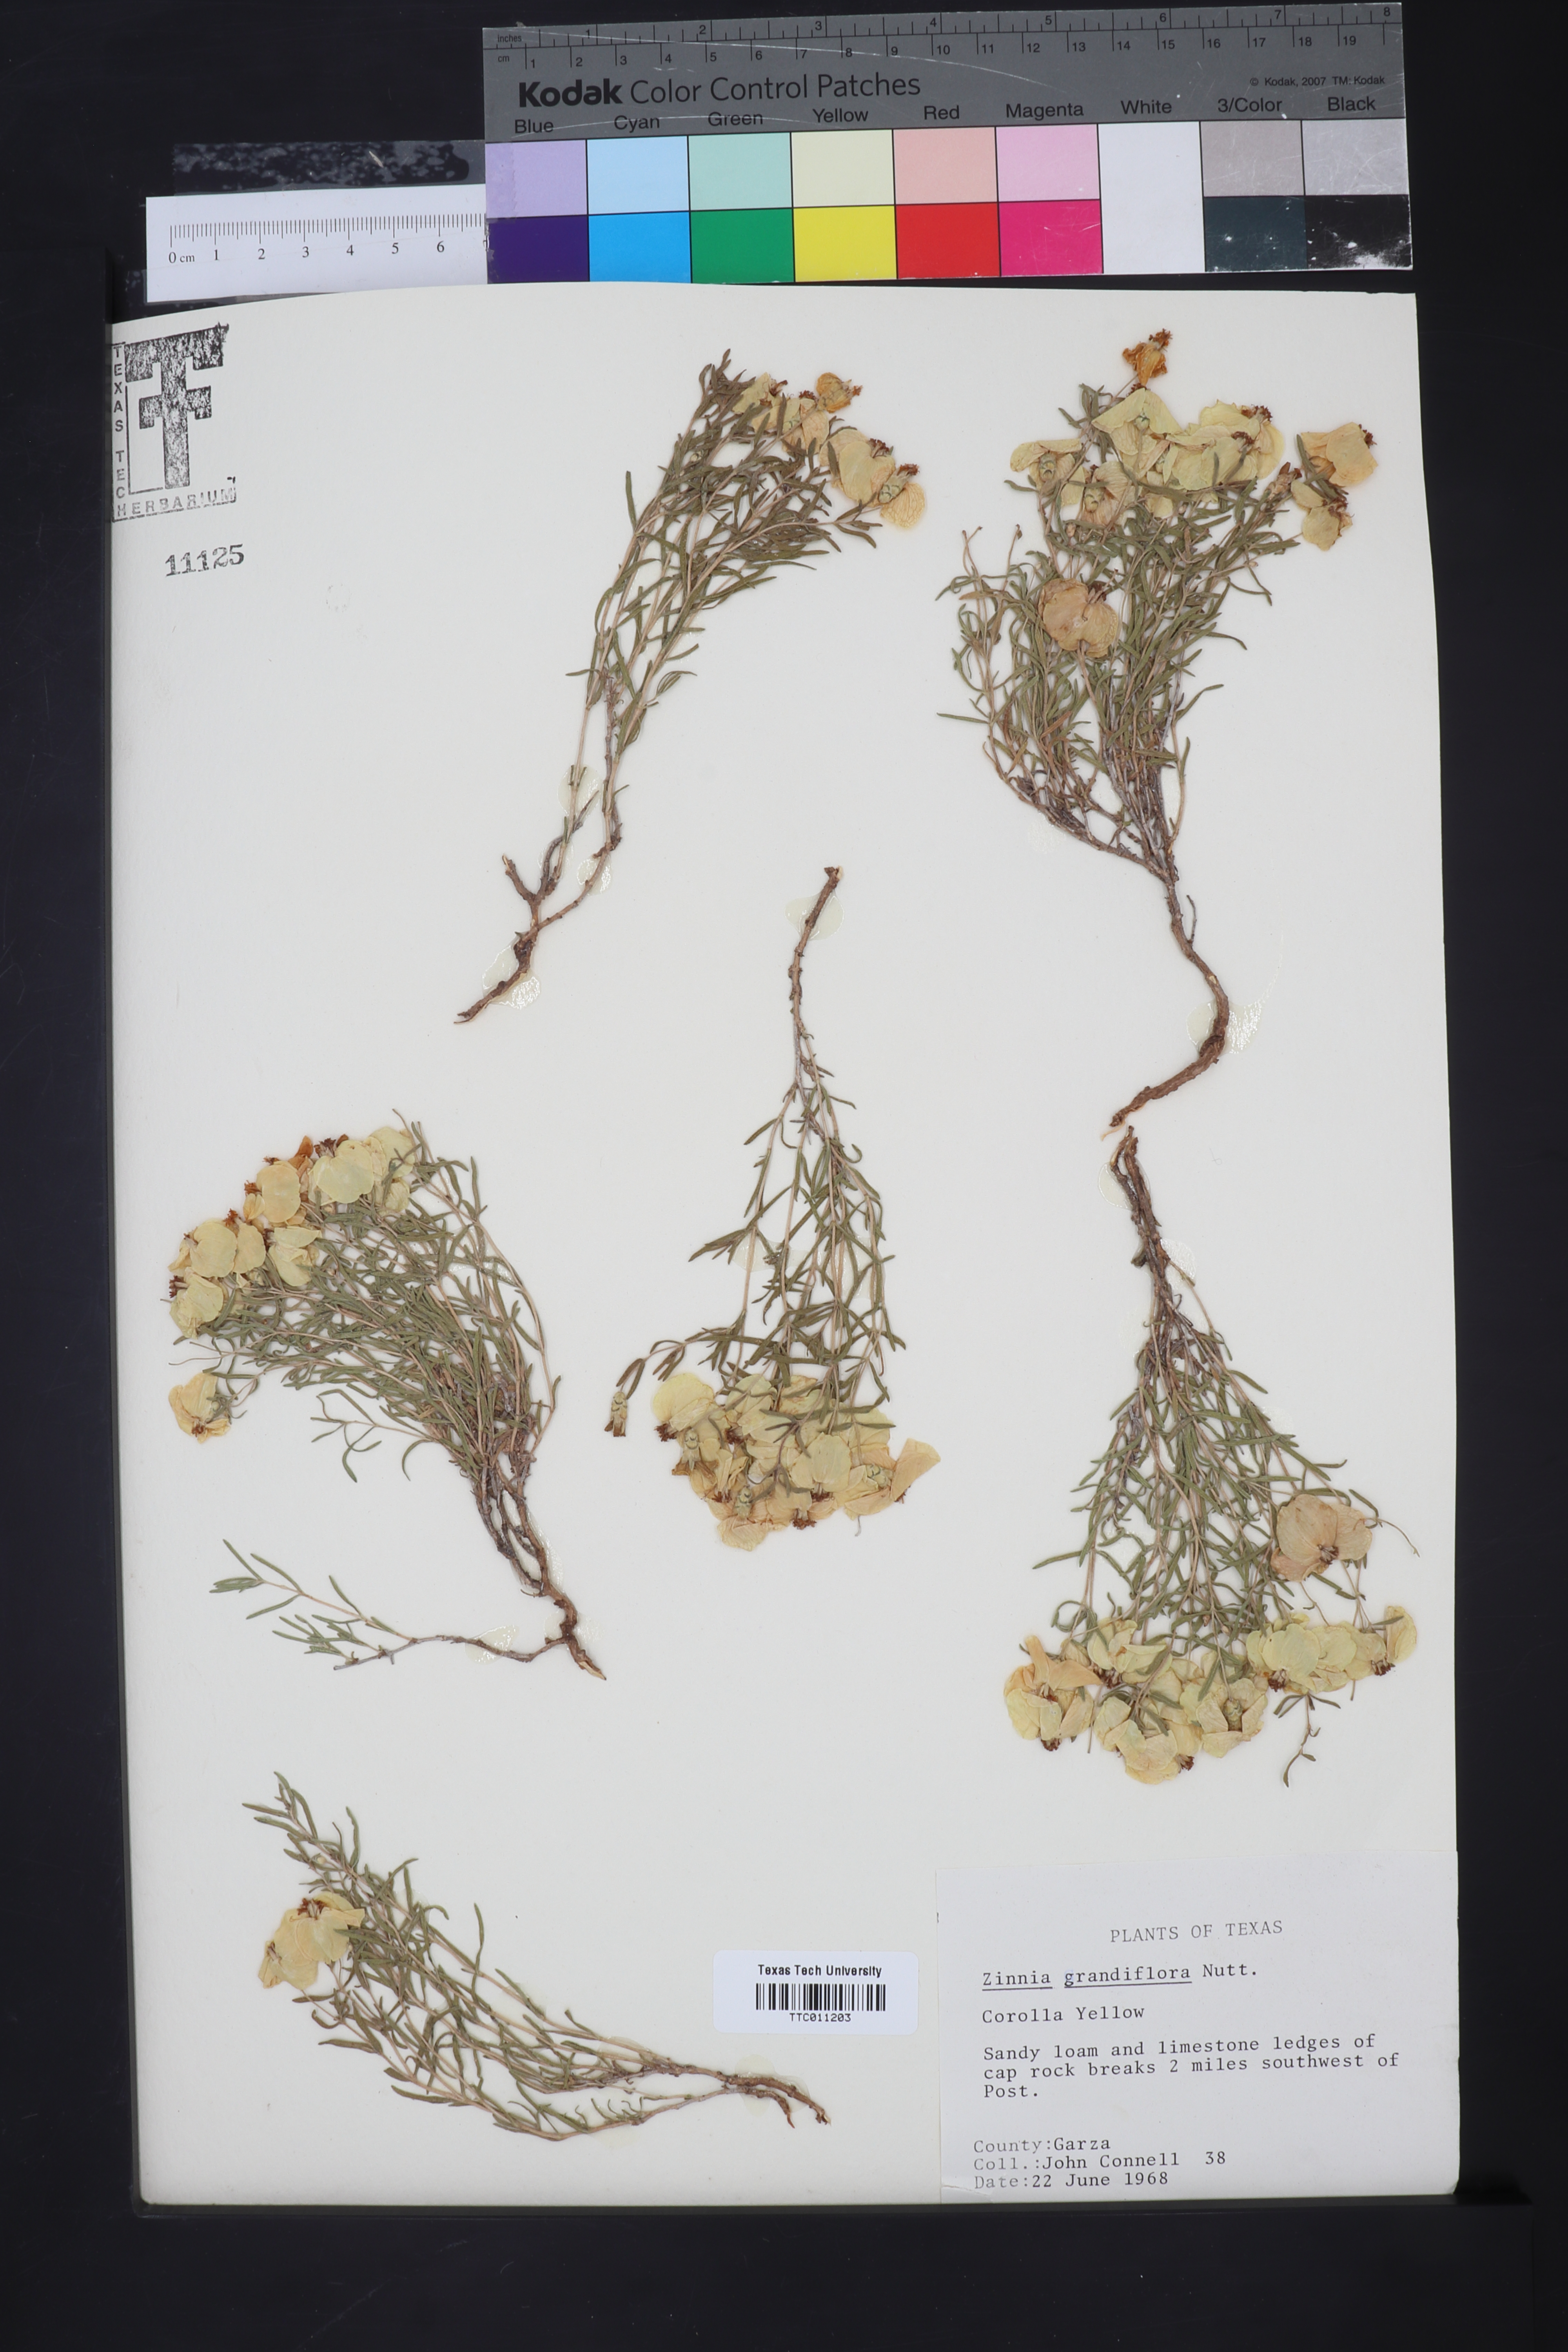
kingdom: Plantae
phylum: Tracheophyta
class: Magnoliopsida
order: Asterales
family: Asteraceae
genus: Zinnia
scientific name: Zinnia grandiflora
